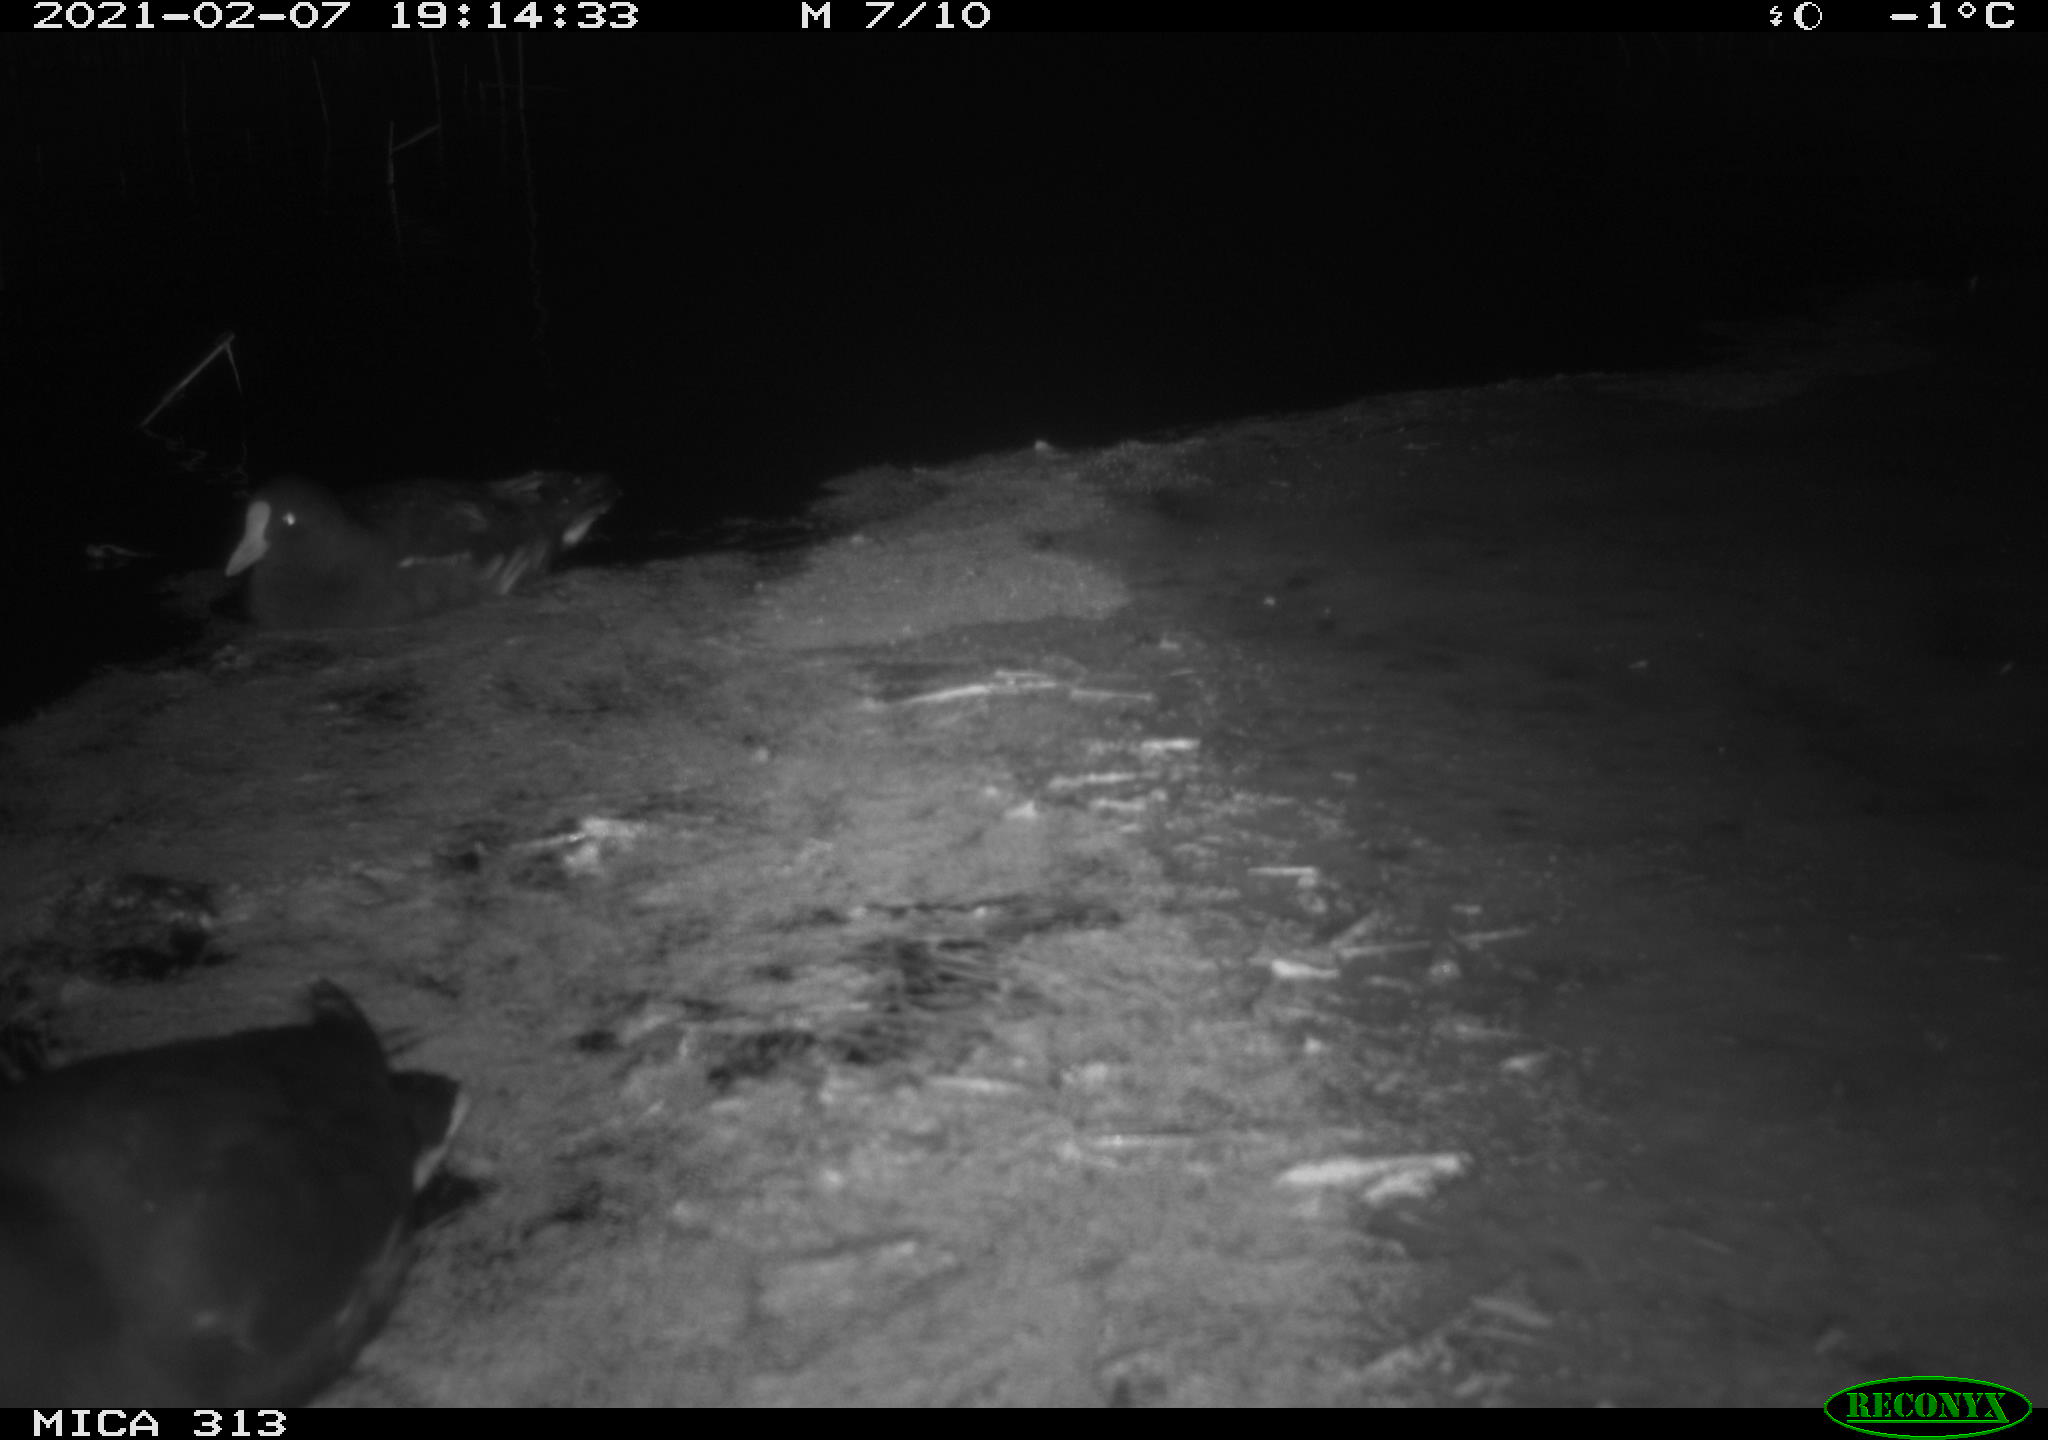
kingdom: Animalia
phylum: Chordata
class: Aves
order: Gruiformes
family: Rallidae
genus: Fulica
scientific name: Fulica atra
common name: Eurasian coot
